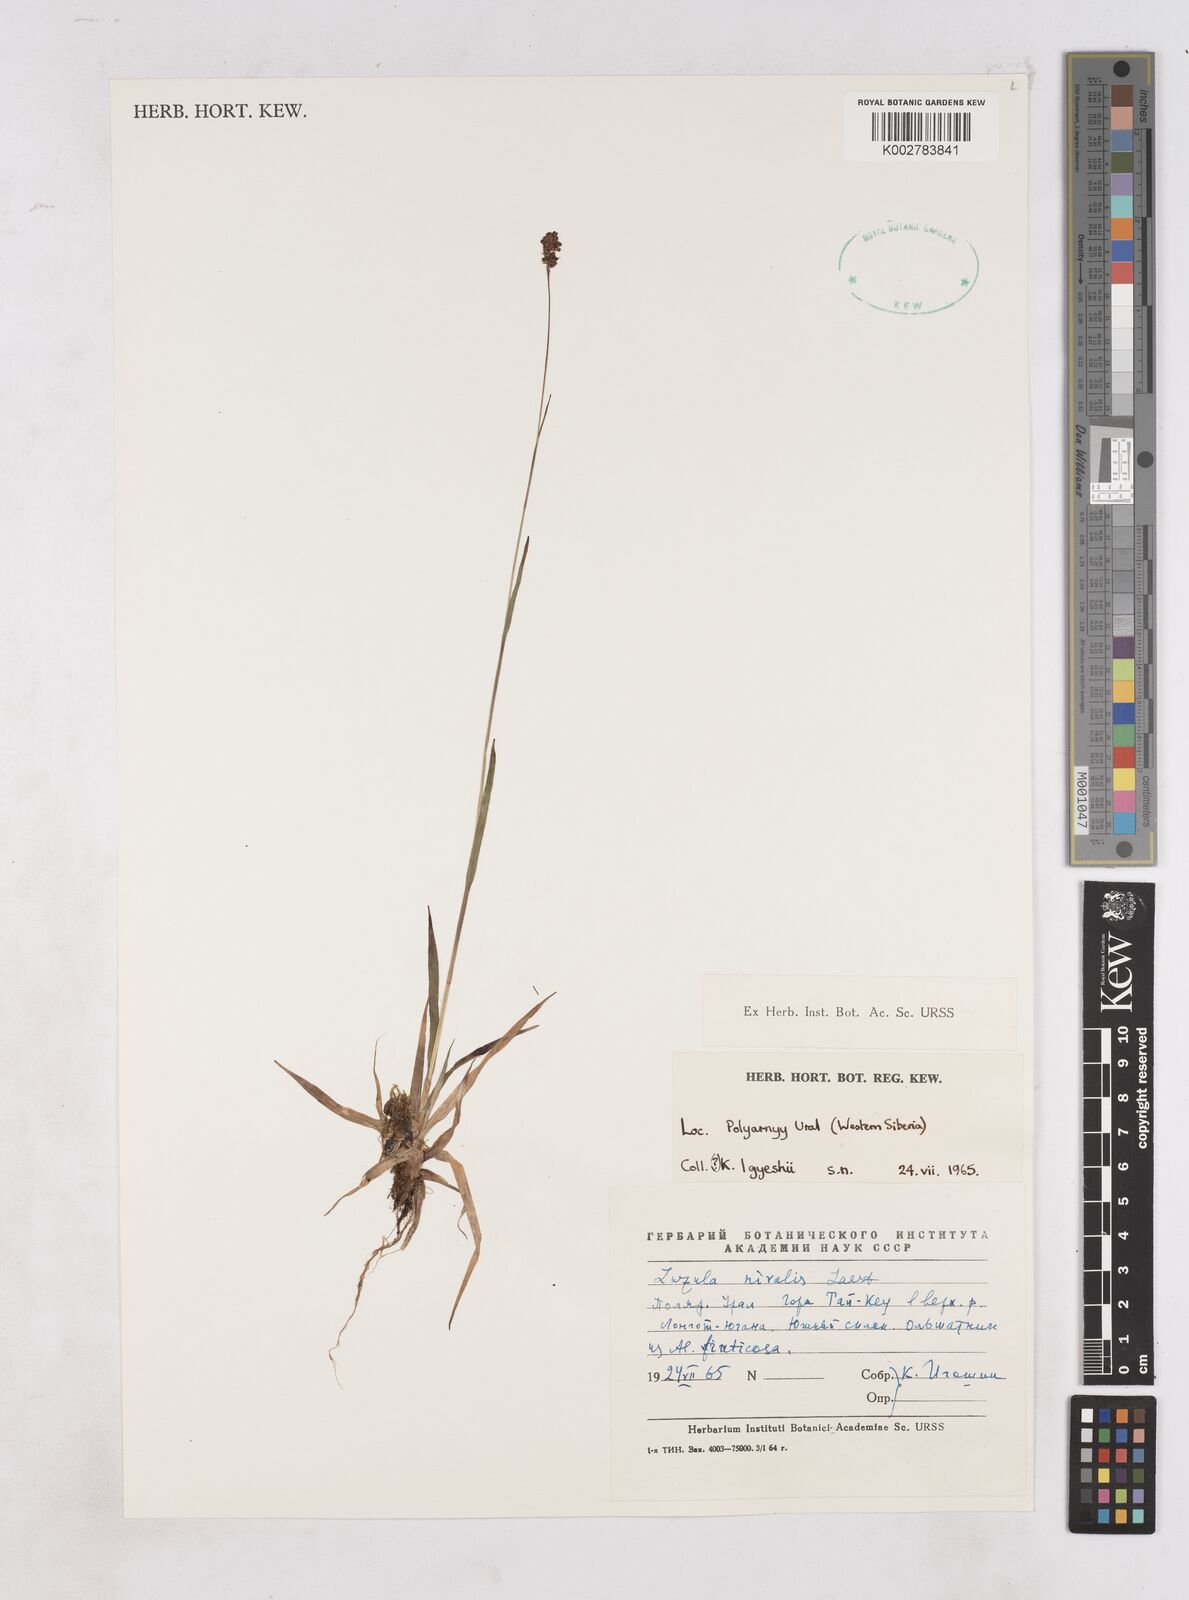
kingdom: Plantae
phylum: Tracheophyta
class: Liliopsida
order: Poales
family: Juncaceae
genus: Luzula
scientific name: Luzula nivalis
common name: Arctic woodrush
